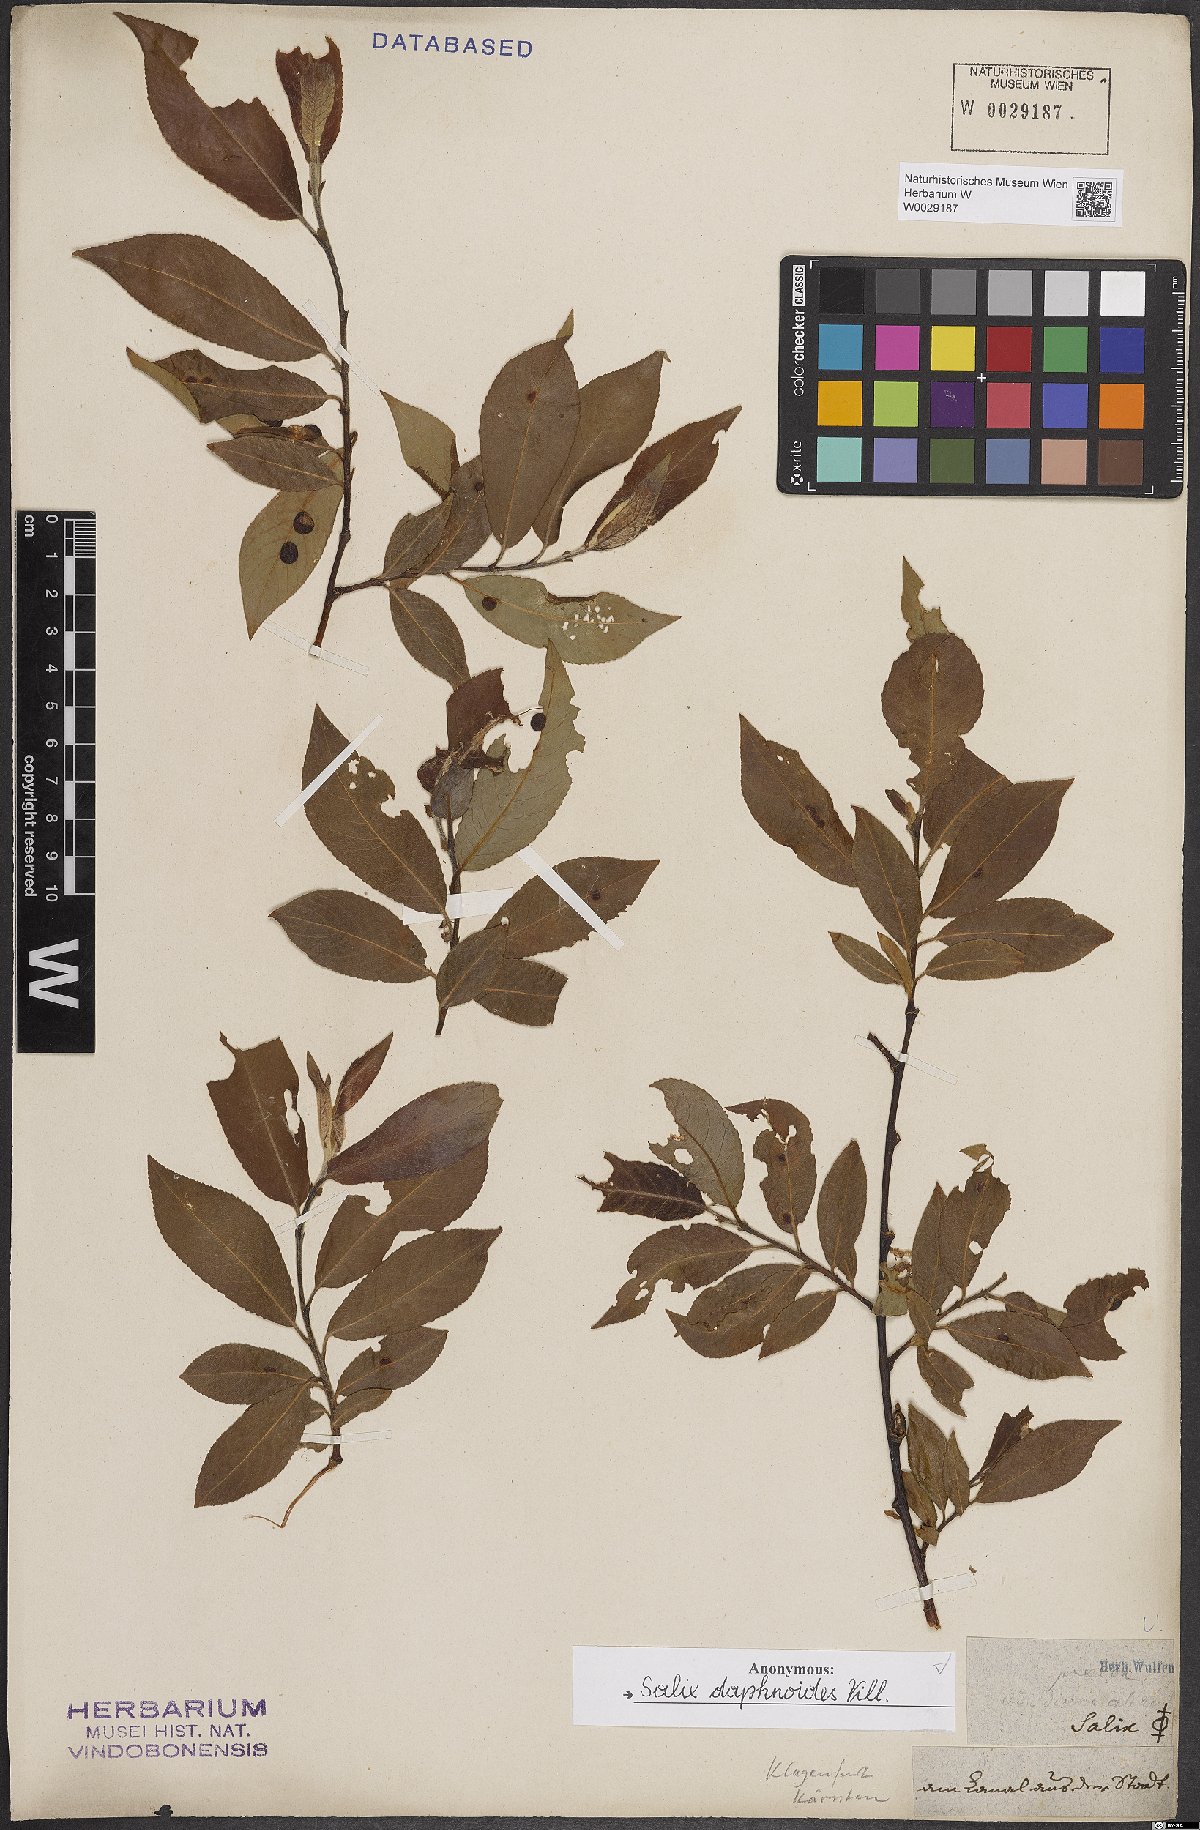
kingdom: Plantae
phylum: Tracheophyta
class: Magnoliopsida
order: Malpighiales
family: Salicaceae
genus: Salix
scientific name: Salix daphnoides
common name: European violet-willow
